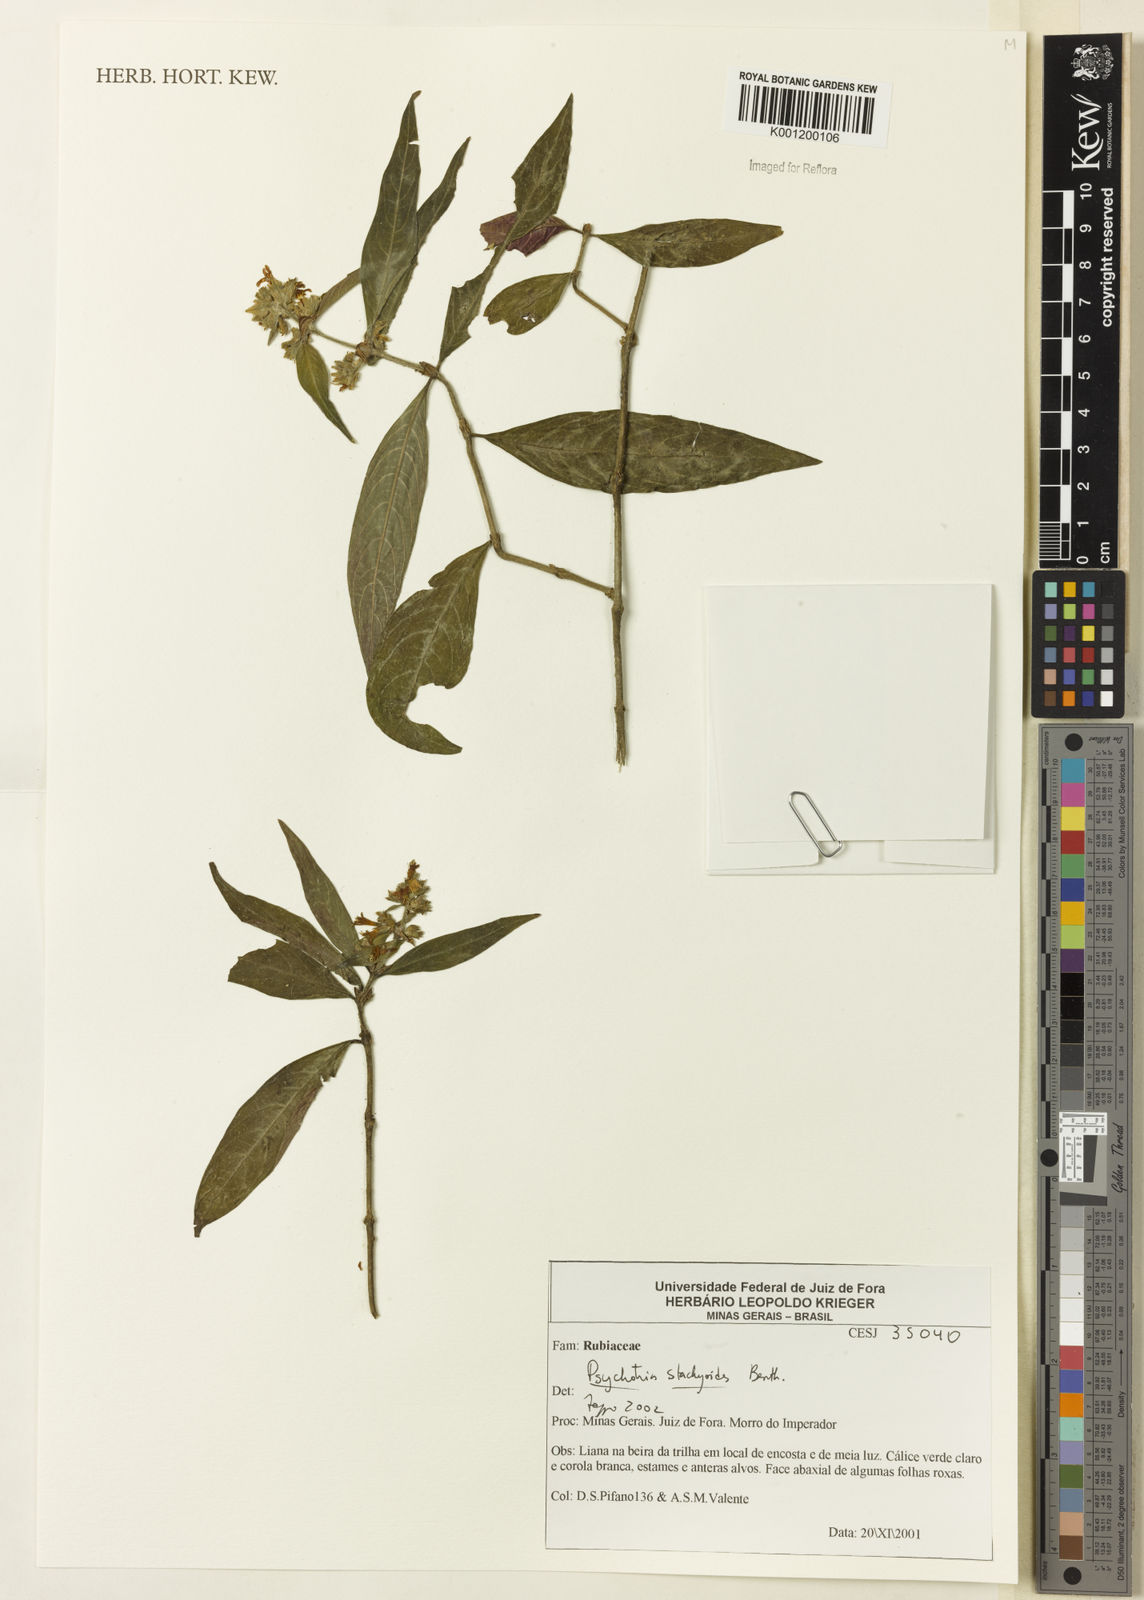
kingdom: Plantae
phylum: Tracheophyta
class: Magnoliopsida
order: Gentianales
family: Rubiaceae
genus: Psychotria
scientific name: Psychotria stachyoides
